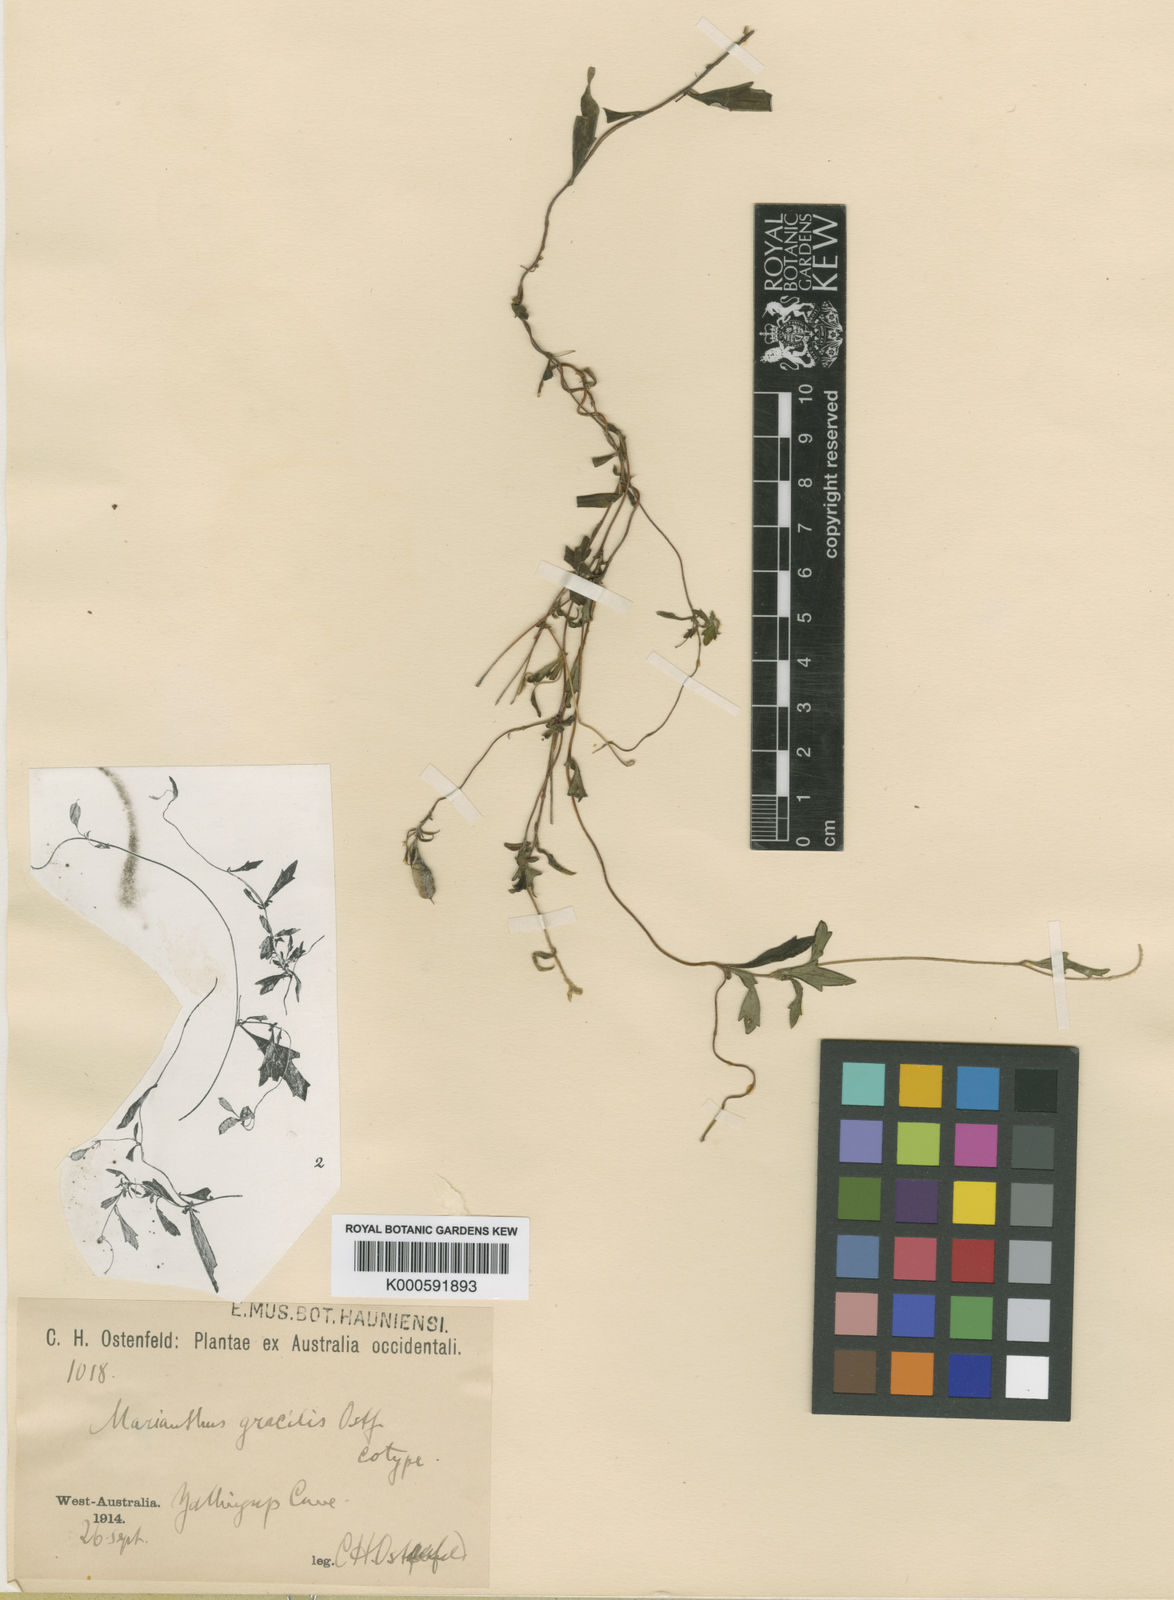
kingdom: Plantae
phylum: Tracheophyta
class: Magnoliopsida
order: Apiales
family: Pittosporaceae
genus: Marianthus
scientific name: Marianthus tenuis
